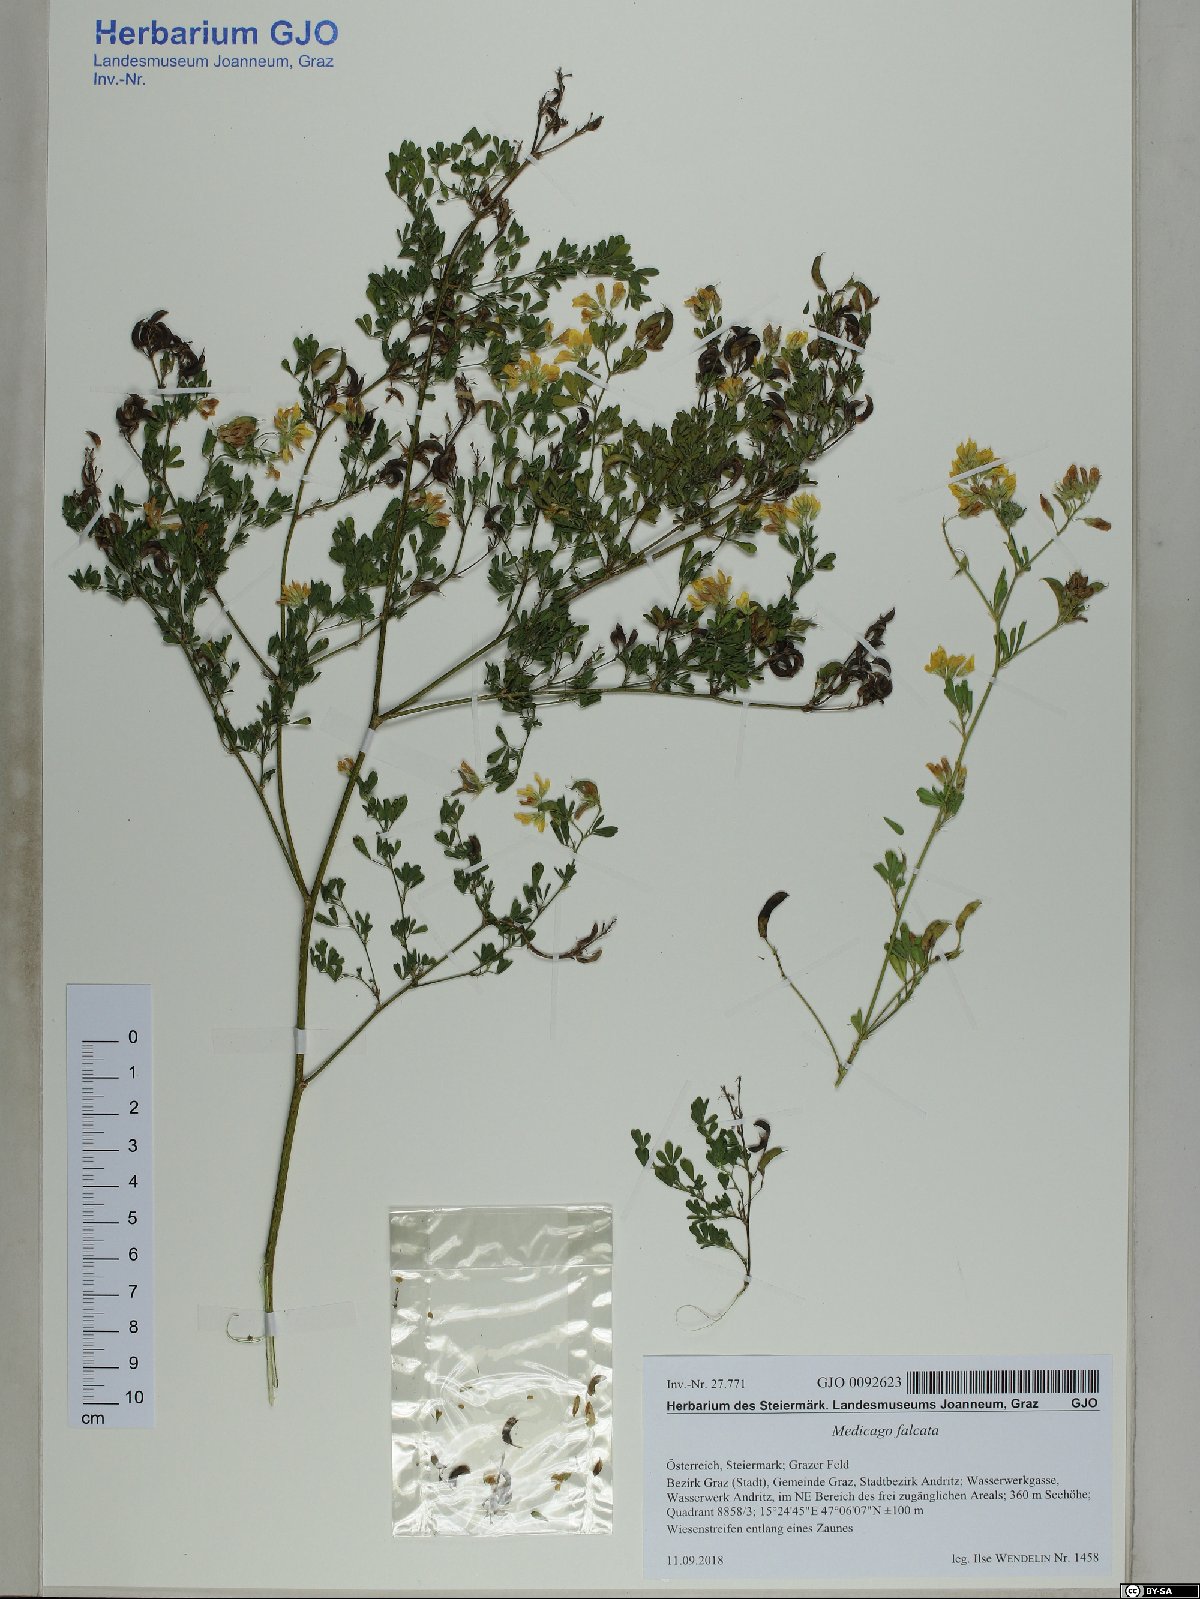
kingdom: Plantae
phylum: Tracheophyta
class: Magnoliopsida
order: Fabales
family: Fabaceae
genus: Medicago
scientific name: Medicago falcata
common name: Sickle medick
